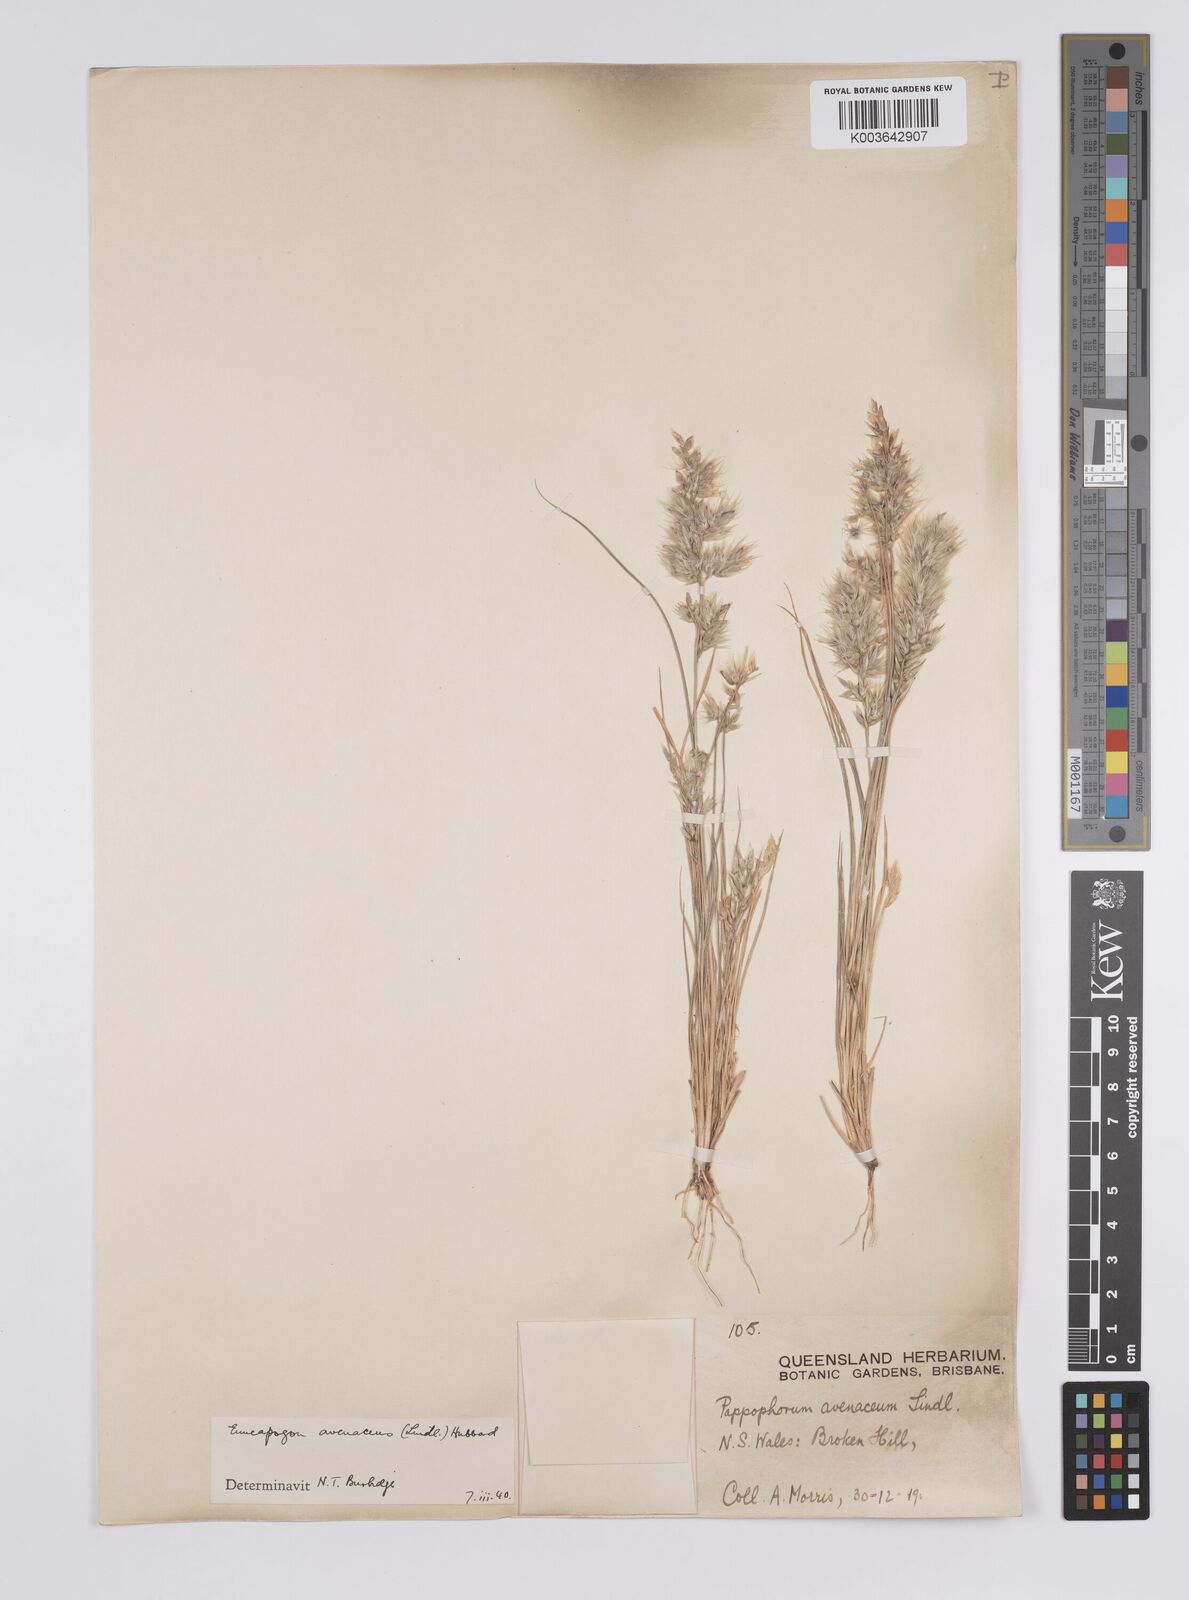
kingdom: Plantae
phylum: Tracheophyta
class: Liliopsida
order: Poales
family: Poaceae
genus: Enneapogon
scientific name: Enneapogon avenaceus
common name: Hairy oat grass
